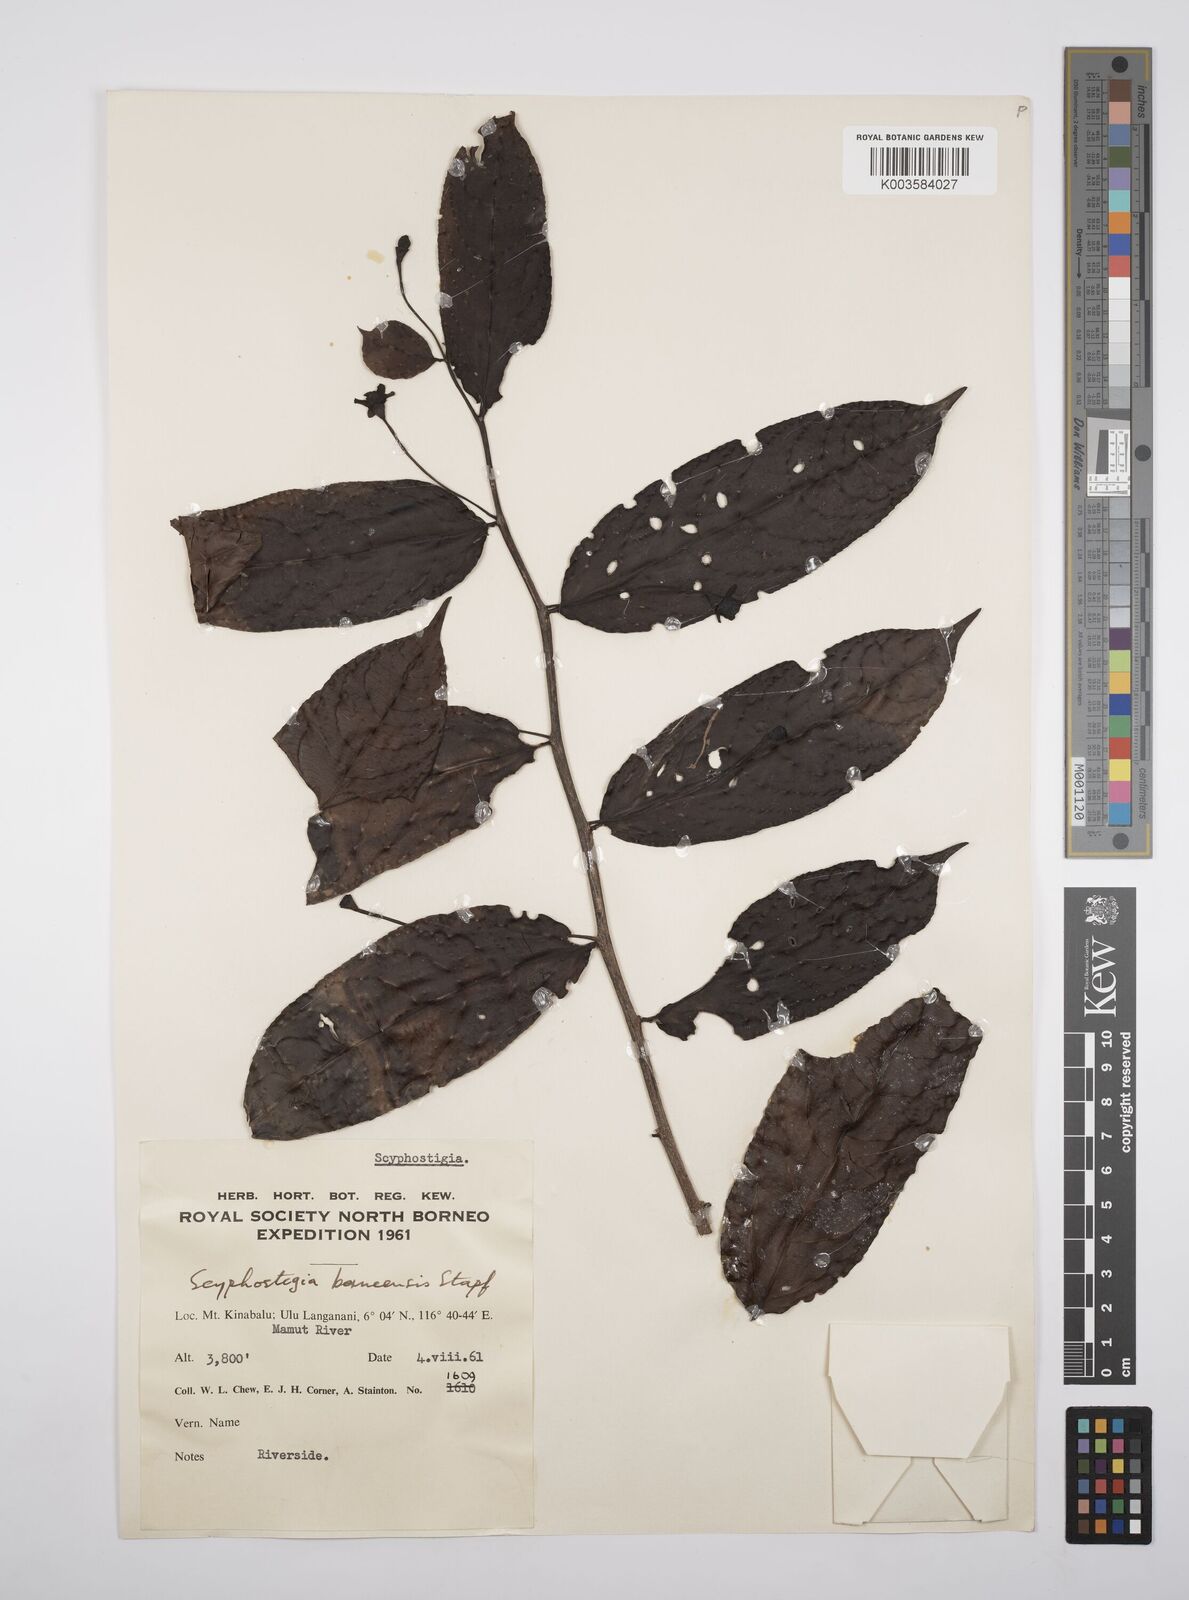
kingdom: Plantae
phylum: Tracheophyta
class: Magnoliopsida
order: Malpighiales
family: Salicaceae
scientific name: Salicaceae
